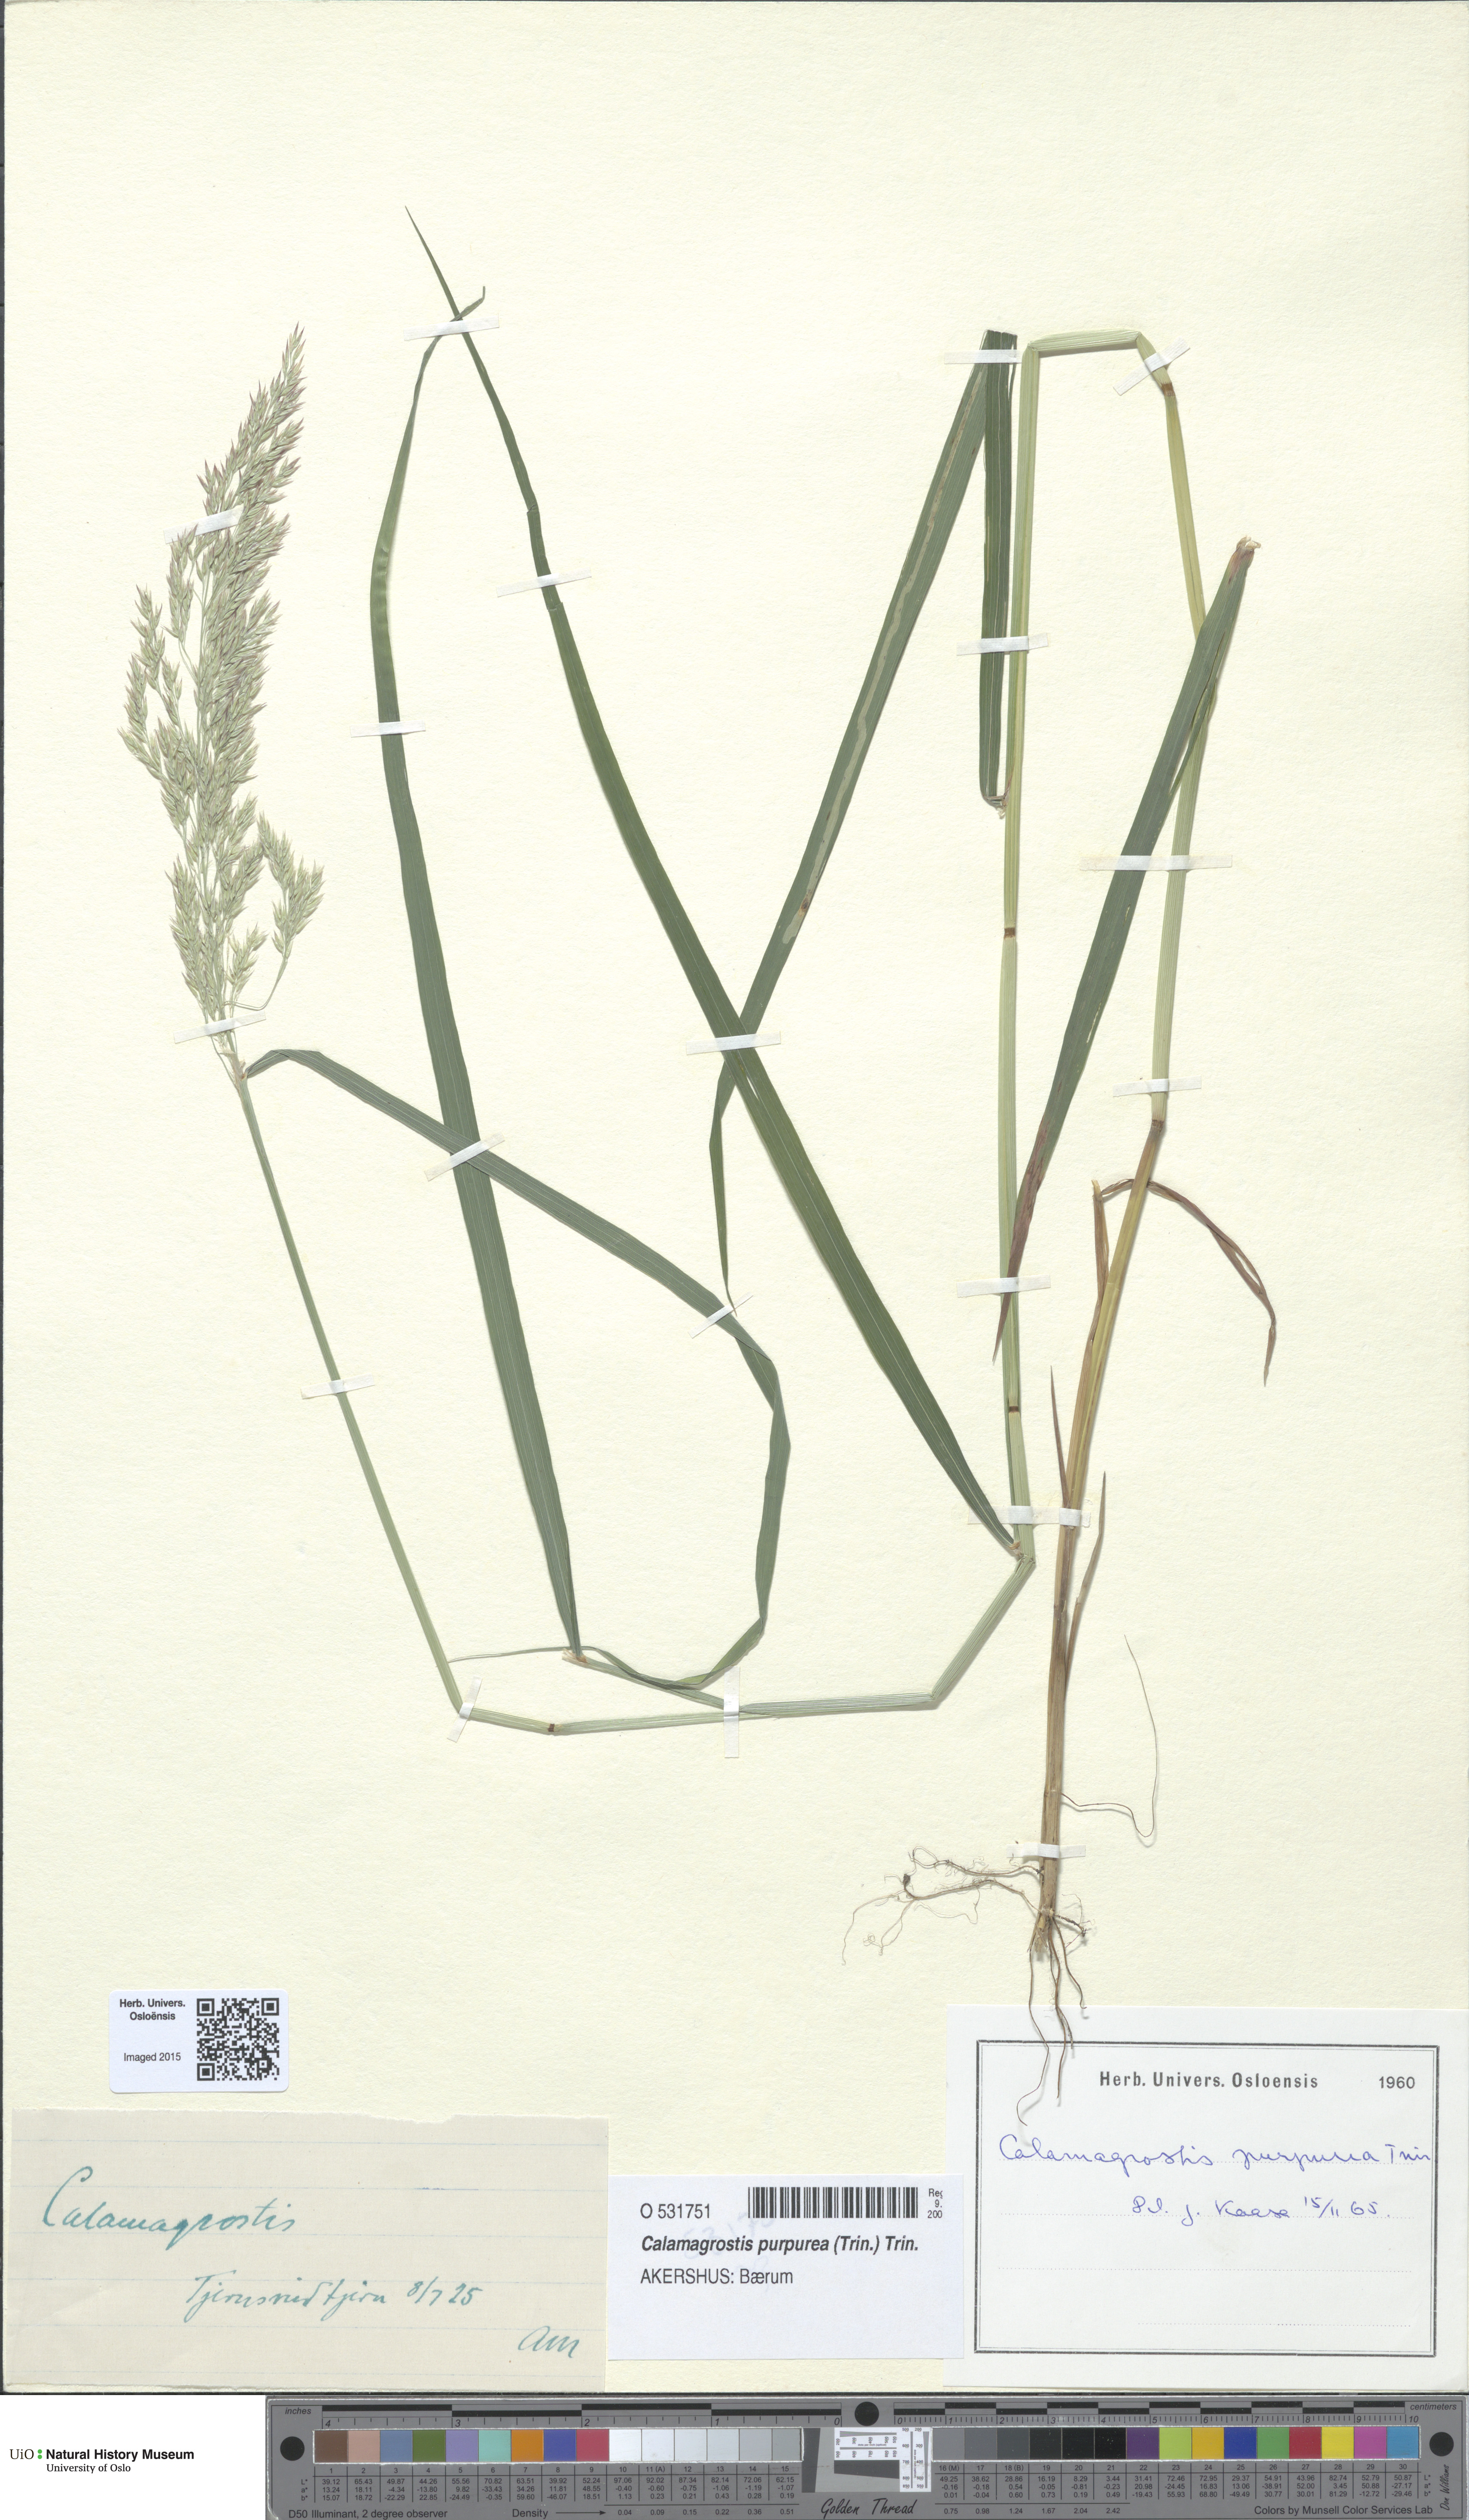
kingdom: Plantae
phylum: Tracheophyta
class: Liliopsida
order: Poales
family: Poaceae
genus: Calamagrostis
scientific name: Calamagrostis purpurea
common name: Scandinavian small-reed
